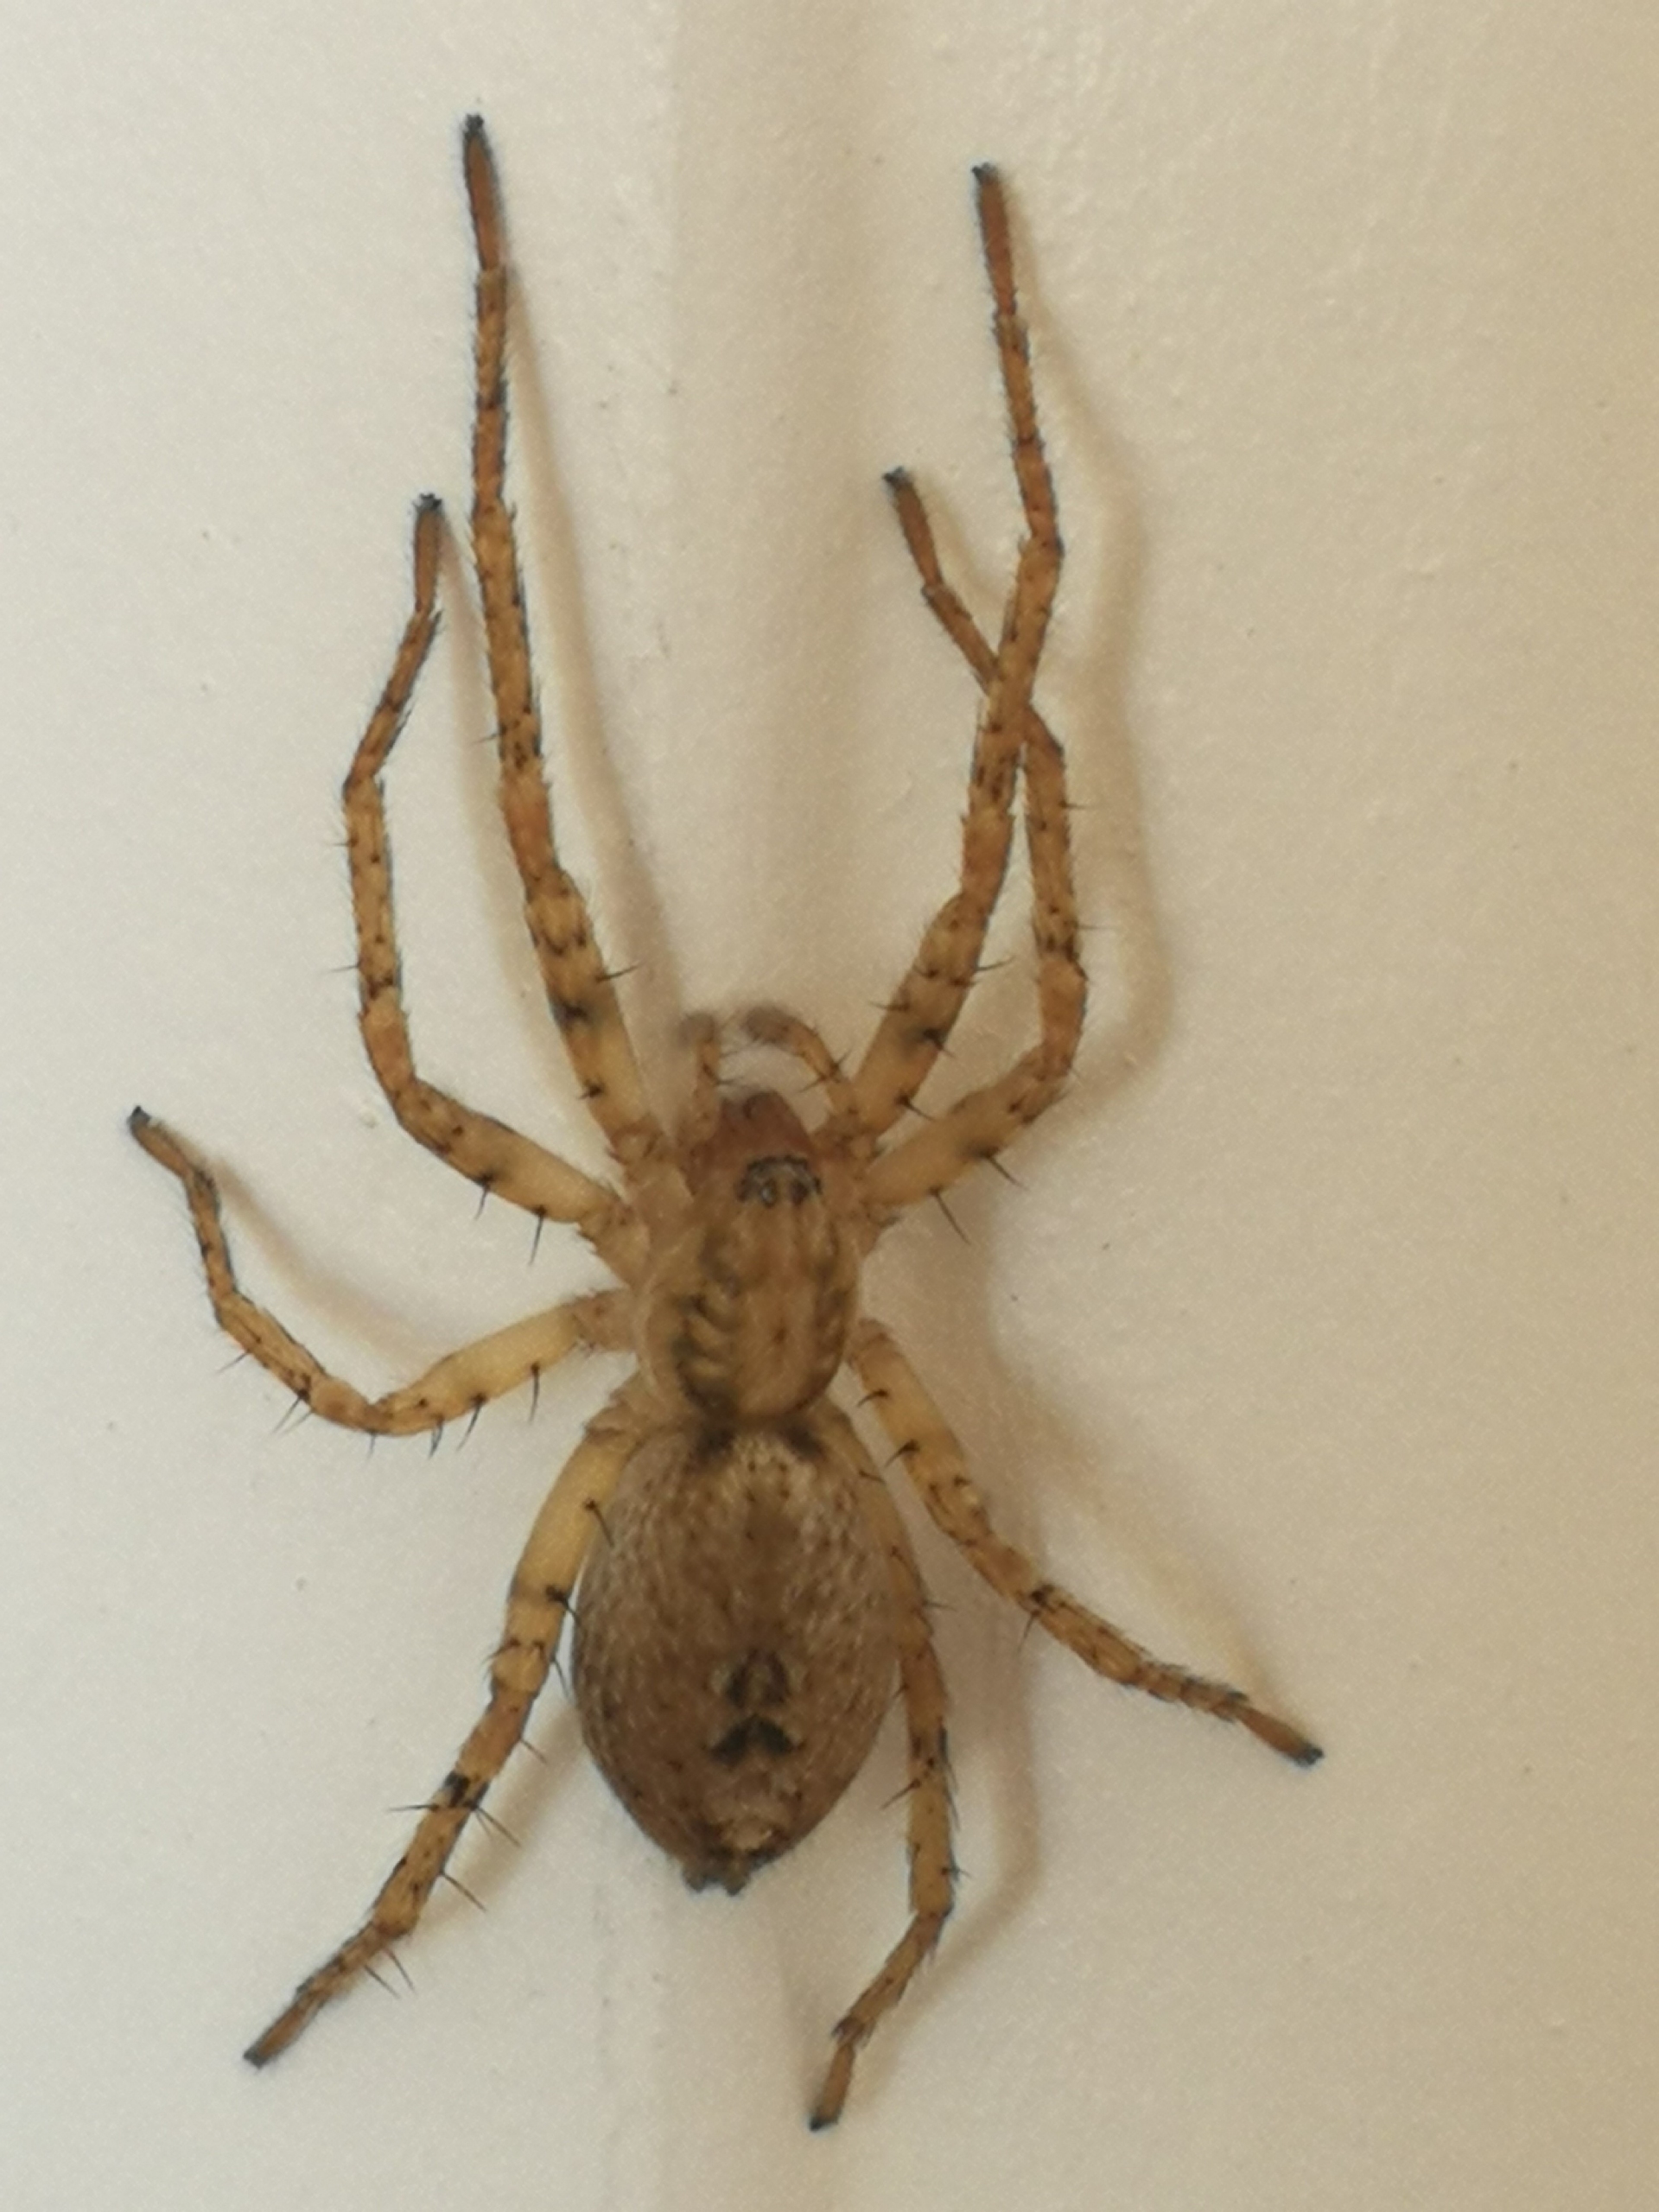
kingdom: Animalia
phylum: Arthropoda
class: Arachnida
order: Araneae
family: Anyphaenidae
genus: Anyphaena
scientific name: Anyphaena accentuata
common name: Summeedderkop
